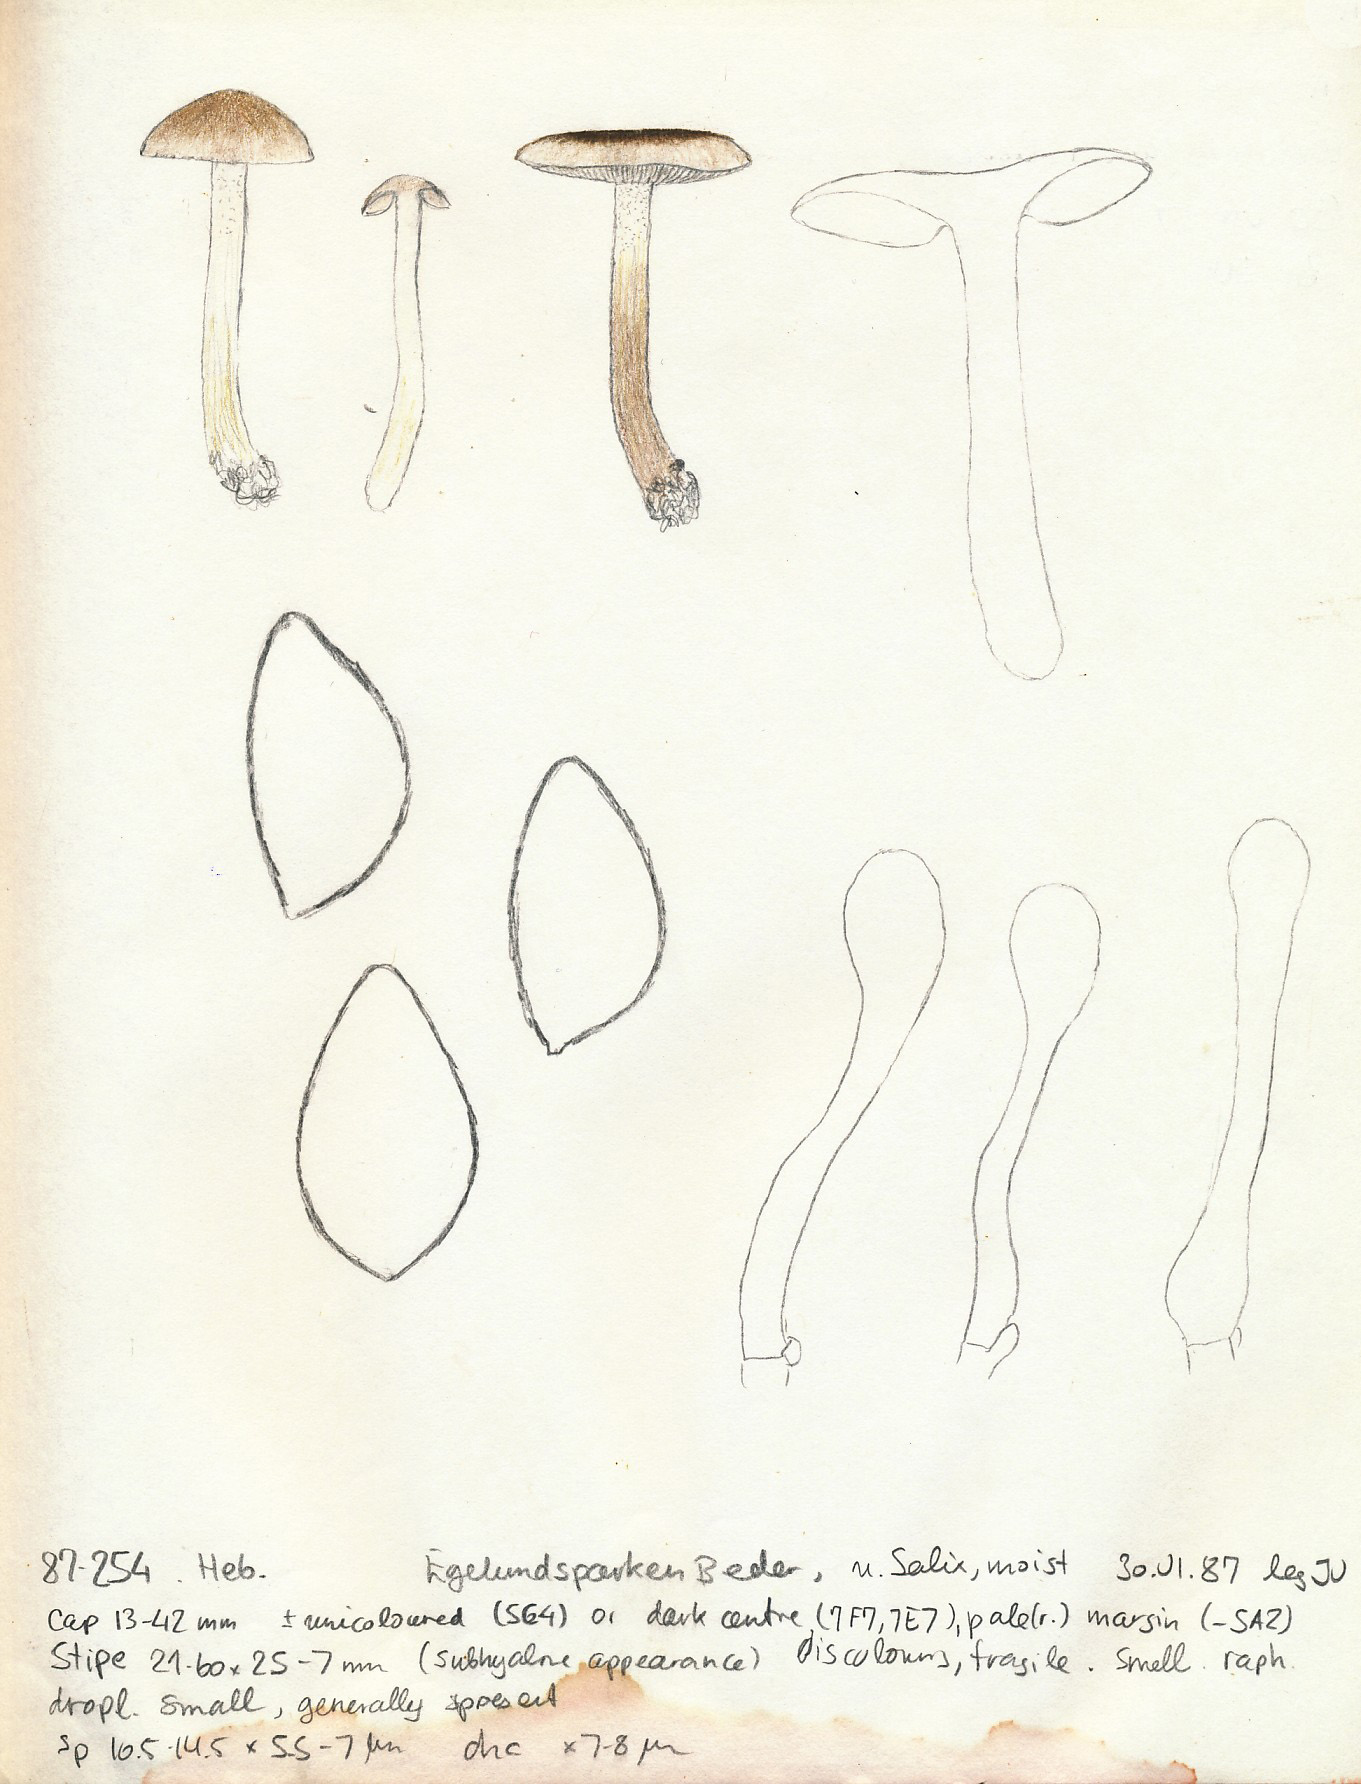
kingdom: Fungi
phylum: Basidiomycota
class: Agaricomycetes
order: Agaricales
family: Hymenogastraceae
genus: Hebeloma
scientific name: Hebeloma vaccinum
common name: ko-tåreblad
